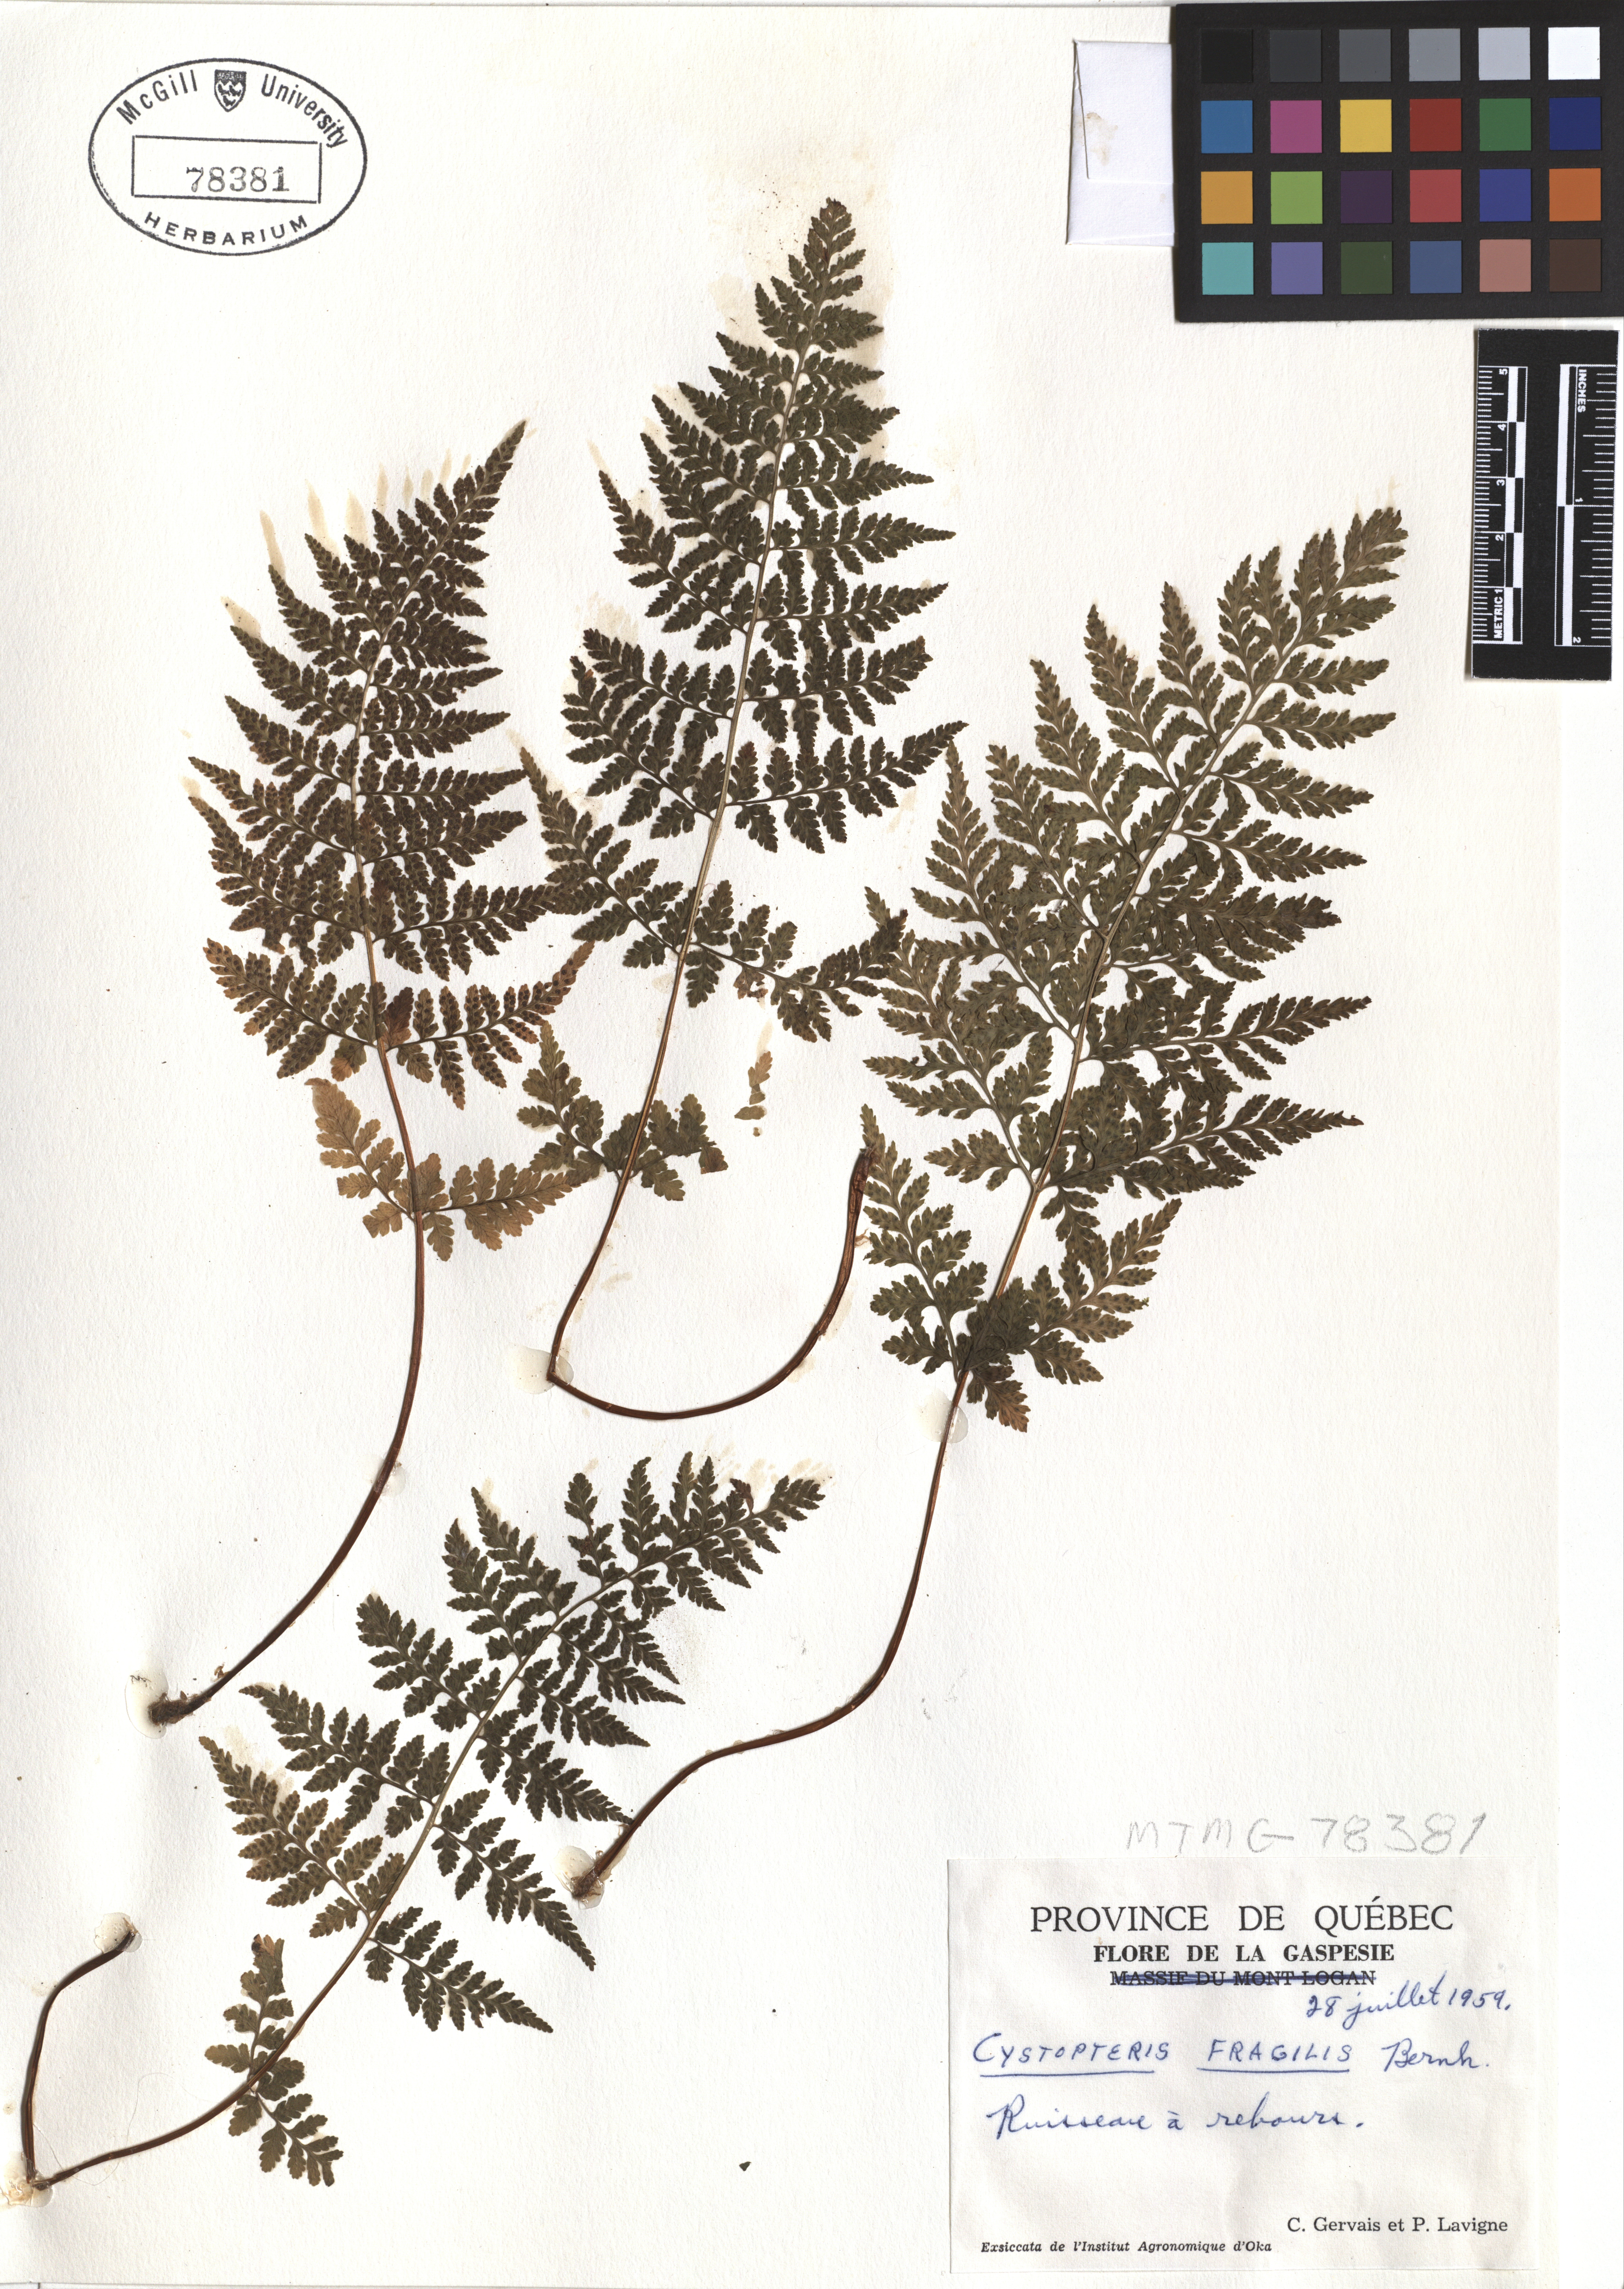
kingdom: Plantae
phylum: Tracheophyta
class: Polypodiopsida
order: Polypodiales
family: Cystopteridaceae
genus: Cystopteris
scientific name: Cystopteris fragilis
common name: Brittle bladder fern
